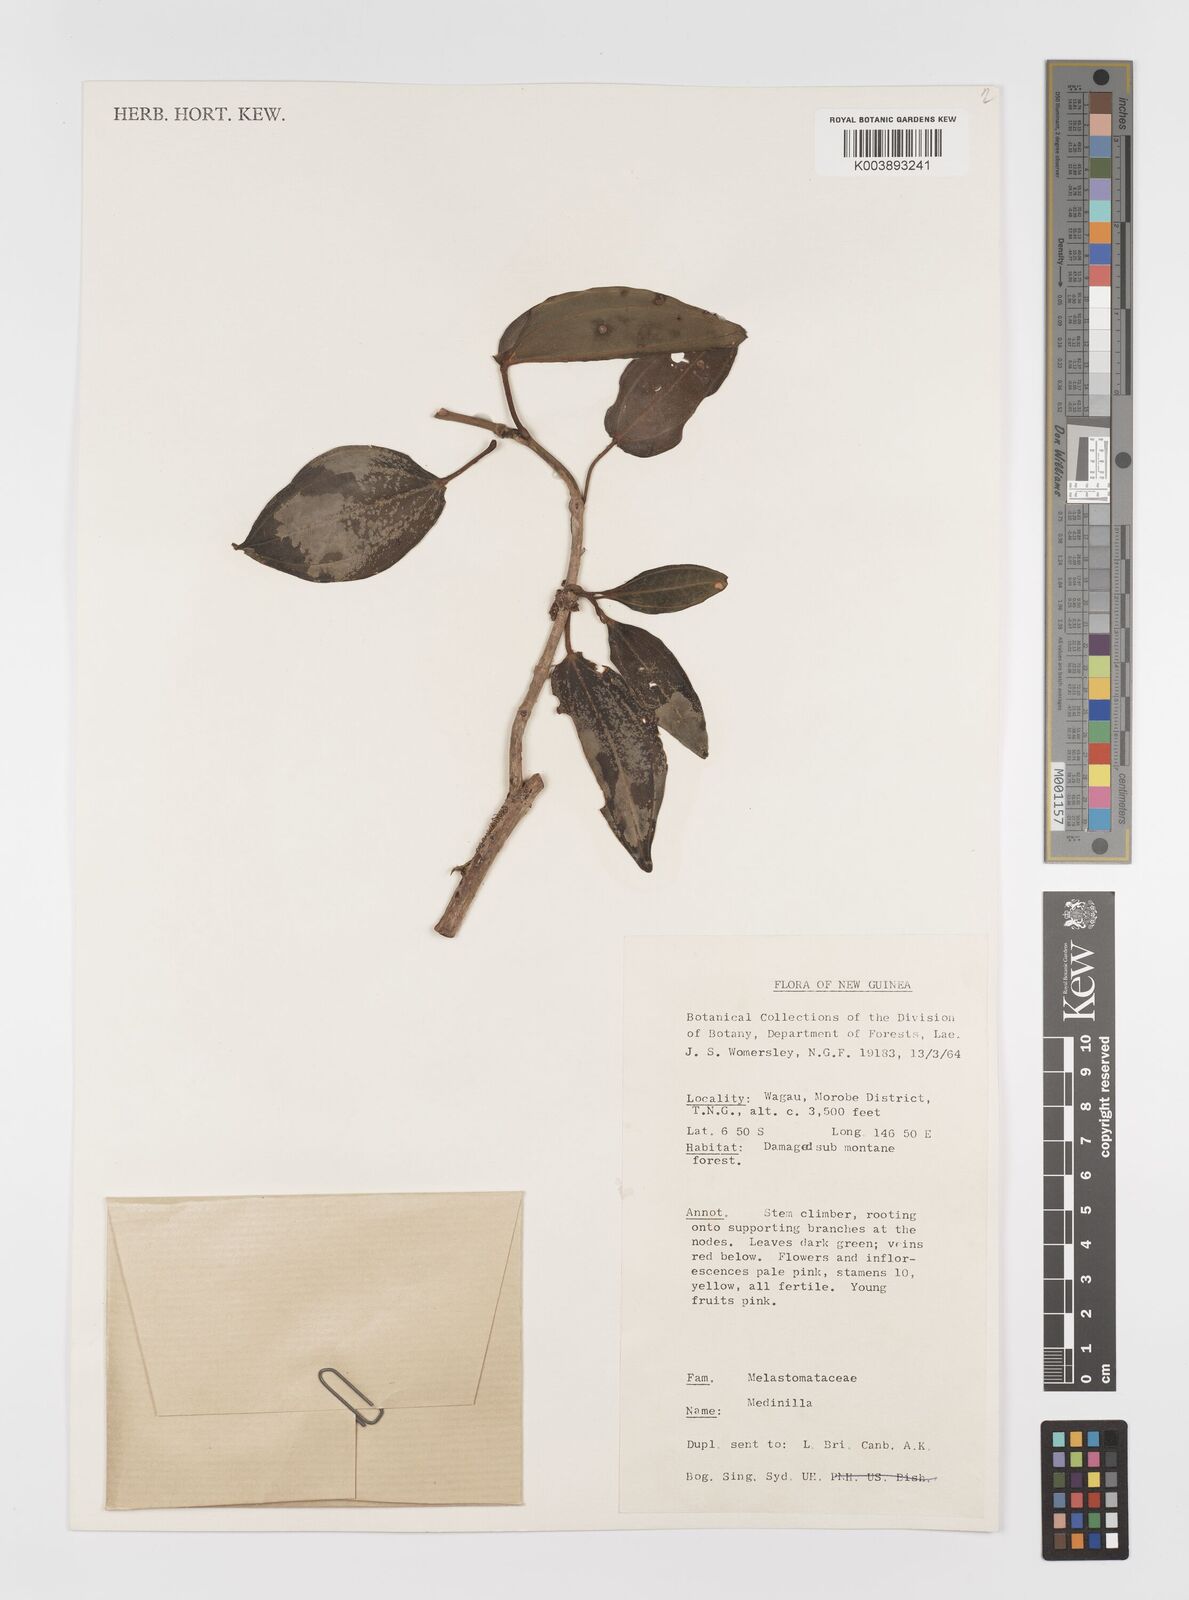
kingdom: Plantae
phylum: Tracheophyta
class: Magnoliopsida
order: Myrtales
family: Melastomataceae
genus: Medinilla
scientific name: Medinilla
